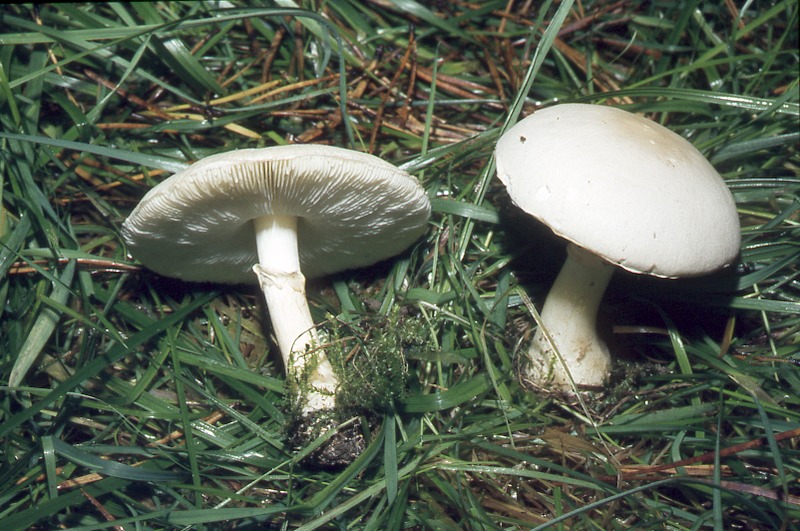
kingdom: Fungi
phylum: Basidiomycota
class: Agaricomycetes
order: Agaricales
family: Agaricaceae
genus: Leucoagaricus
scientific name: Leucoagaricus leucothites
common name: White dapperling
